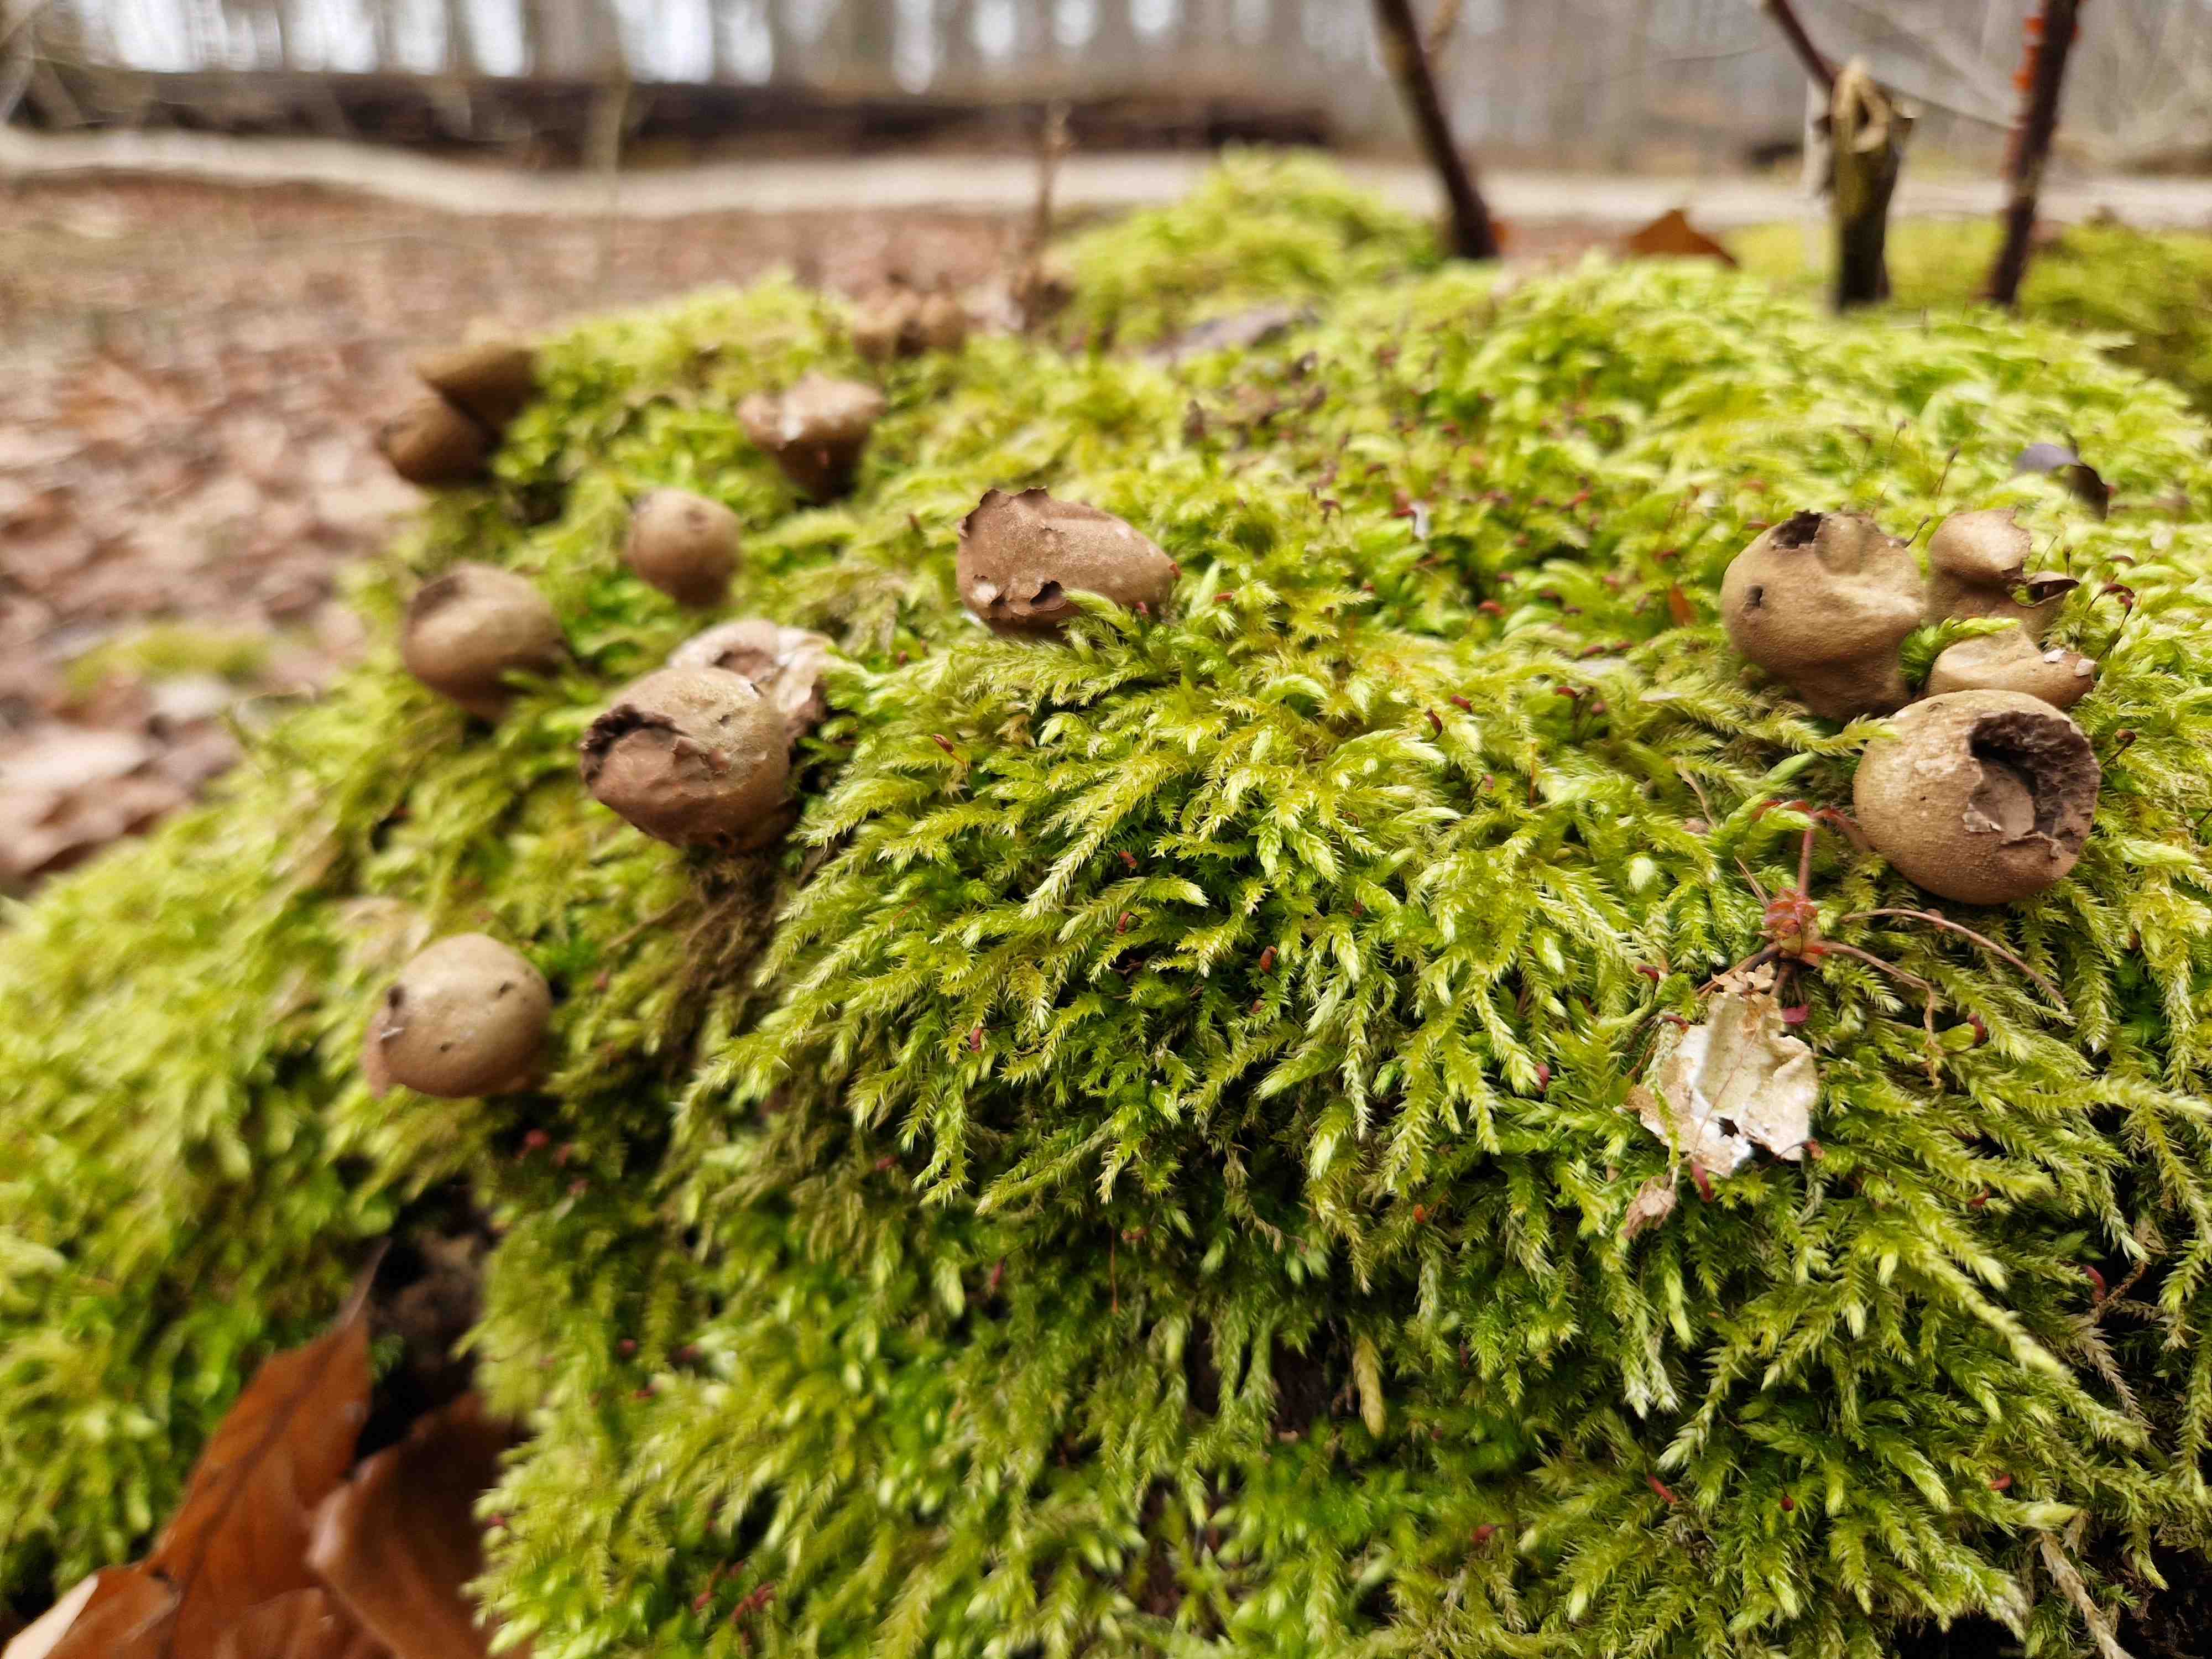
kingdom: Fungi
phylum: Basidiomycota
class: Agaricomycetes
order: Agaricales
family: Lycoperdaceae
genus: Apioperdon
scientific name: Apioperdon pyriforme
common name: pære-støvbold
